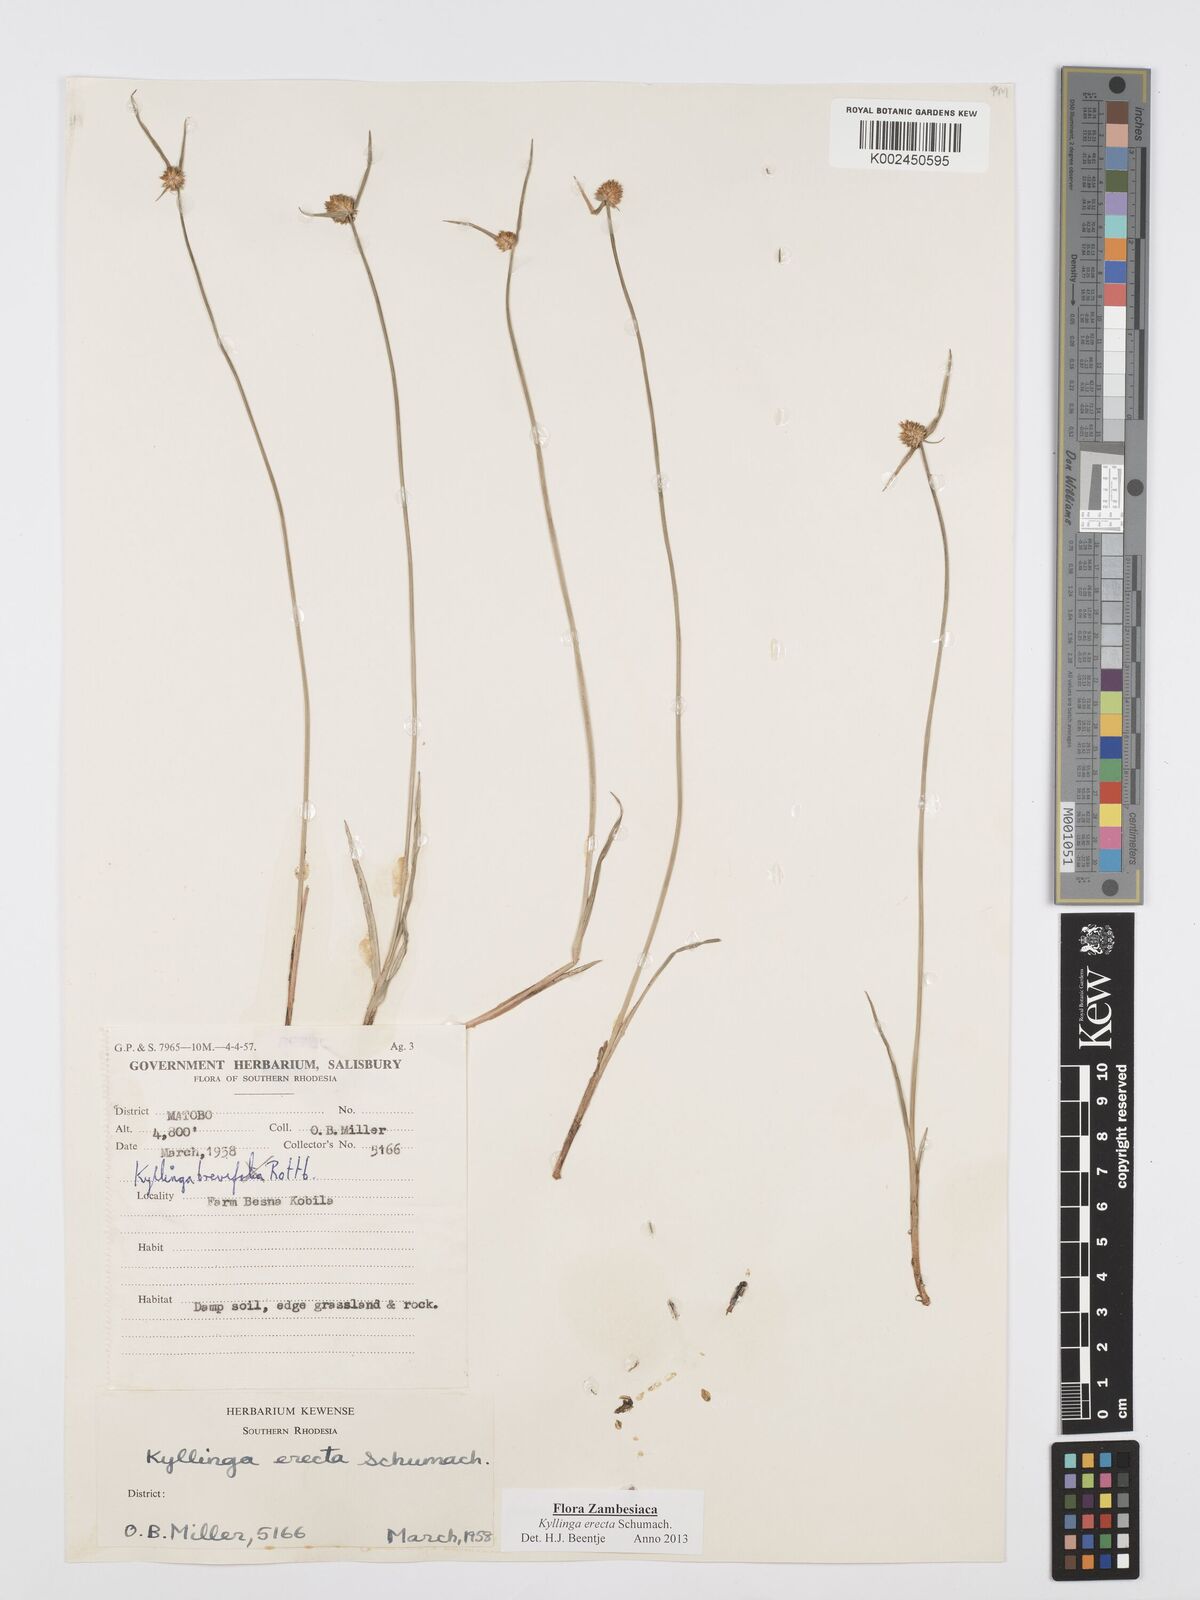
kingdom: Plantae
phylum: Tracheophyta
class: Liliopsida
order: Poales
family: Cyperaceae
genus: Cyperus
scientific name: Cyperus erectus
